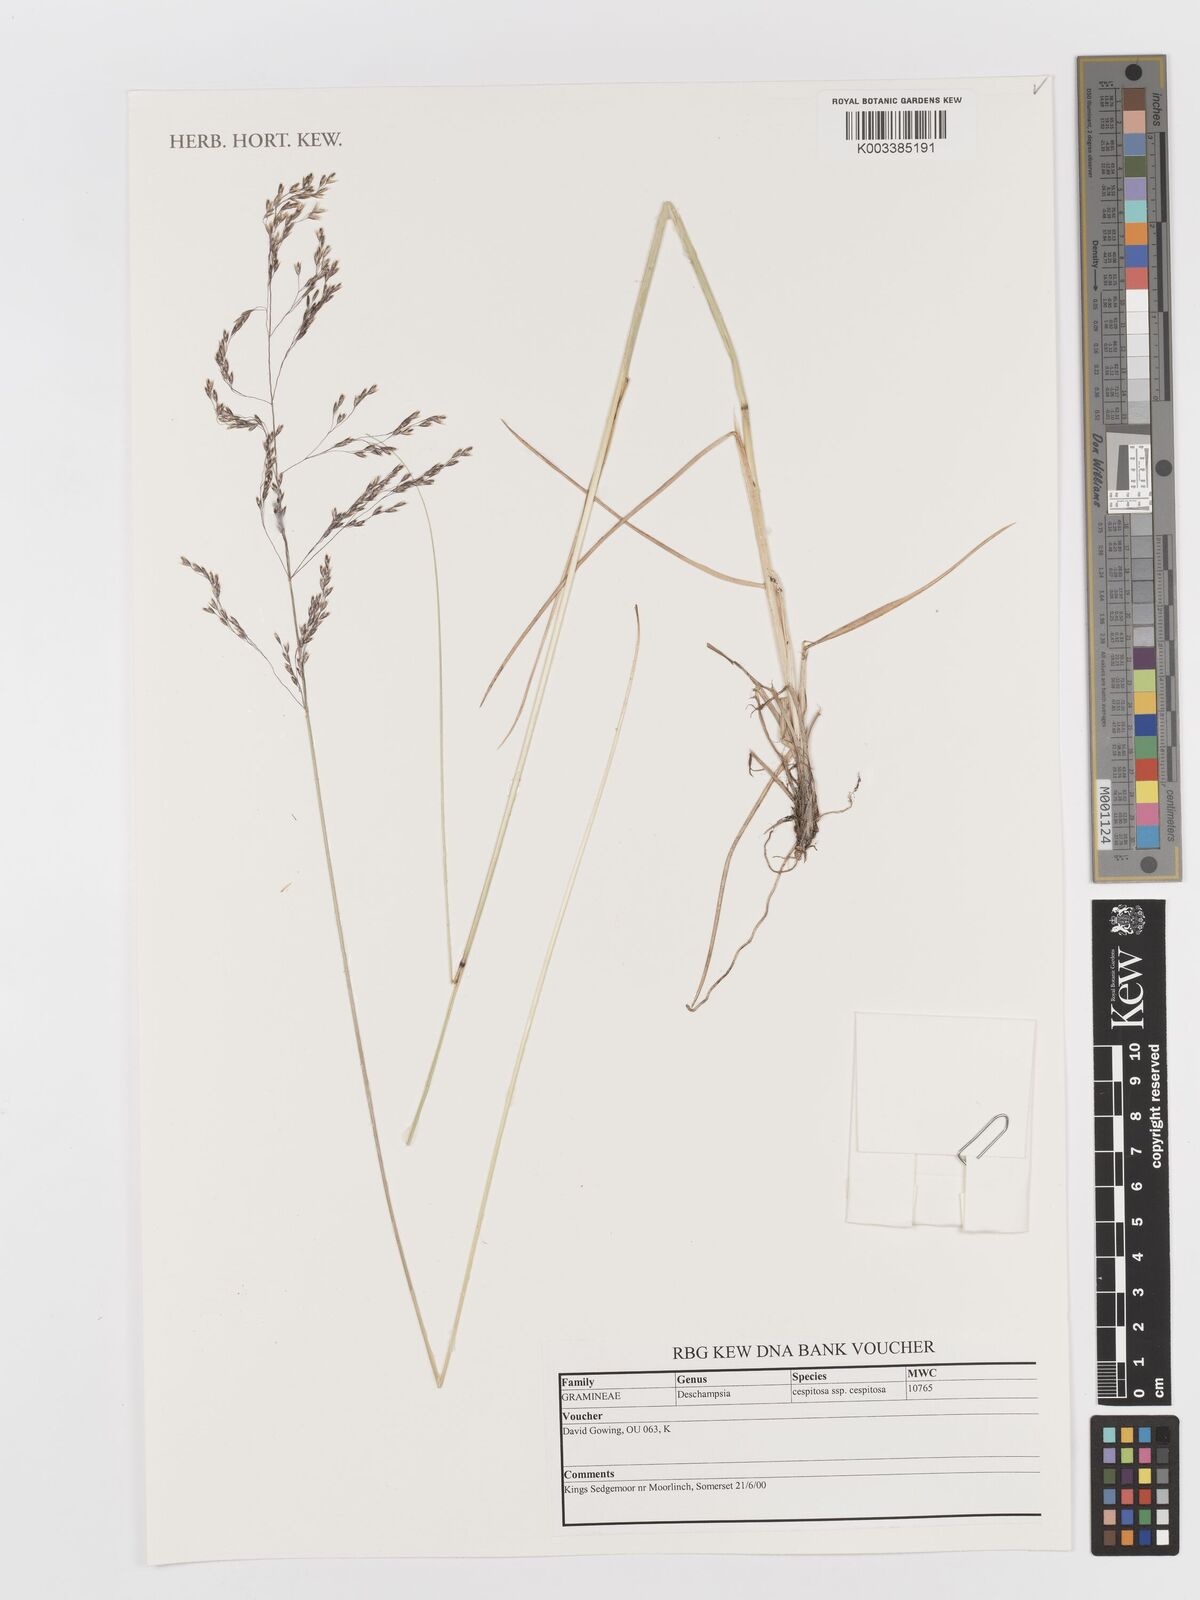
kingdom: Plantae
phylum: Tracheophyta
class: Liliopsida
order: Poales
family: Poaceae
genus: Deschampsia
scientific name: Deschampsia cespitosa
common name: Tufted hair-grass
